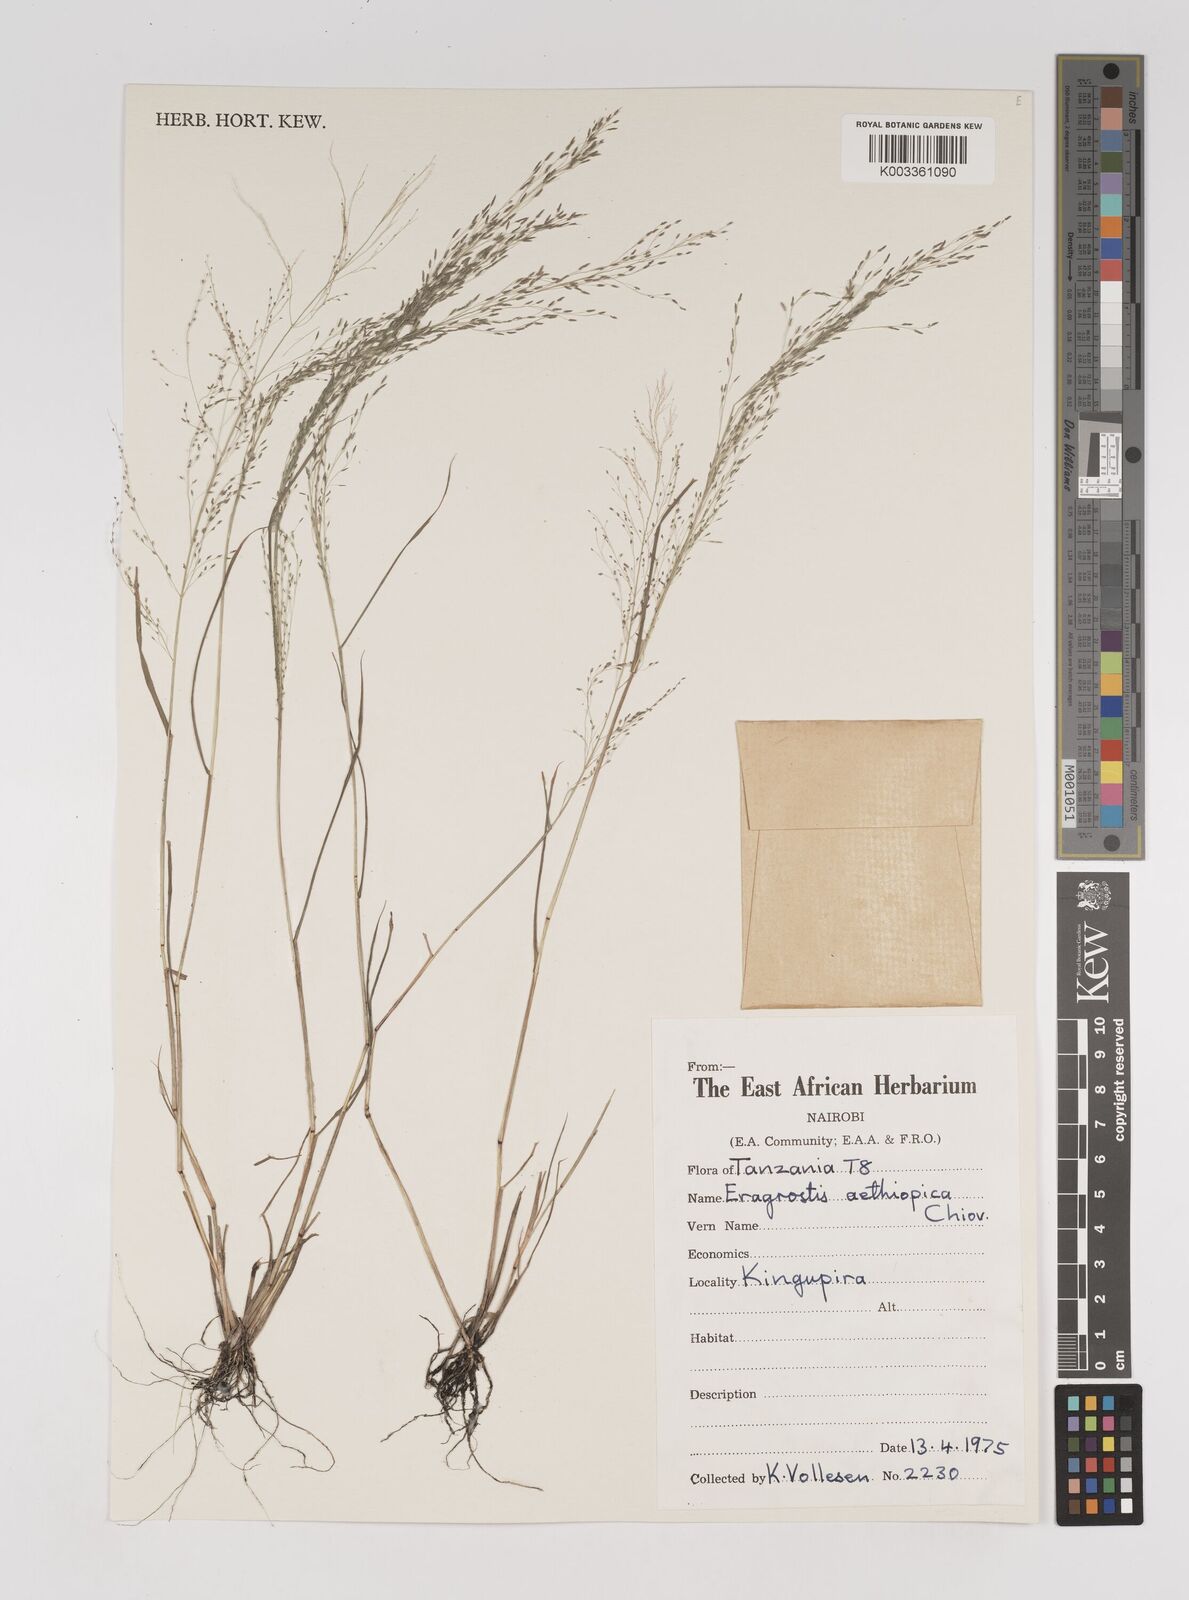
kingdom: Plantae
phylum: Tracheophyta
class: Liliopsida
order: Poales
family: Poaceae
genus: Eragrostis
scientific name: Eragrostis aethiopica
